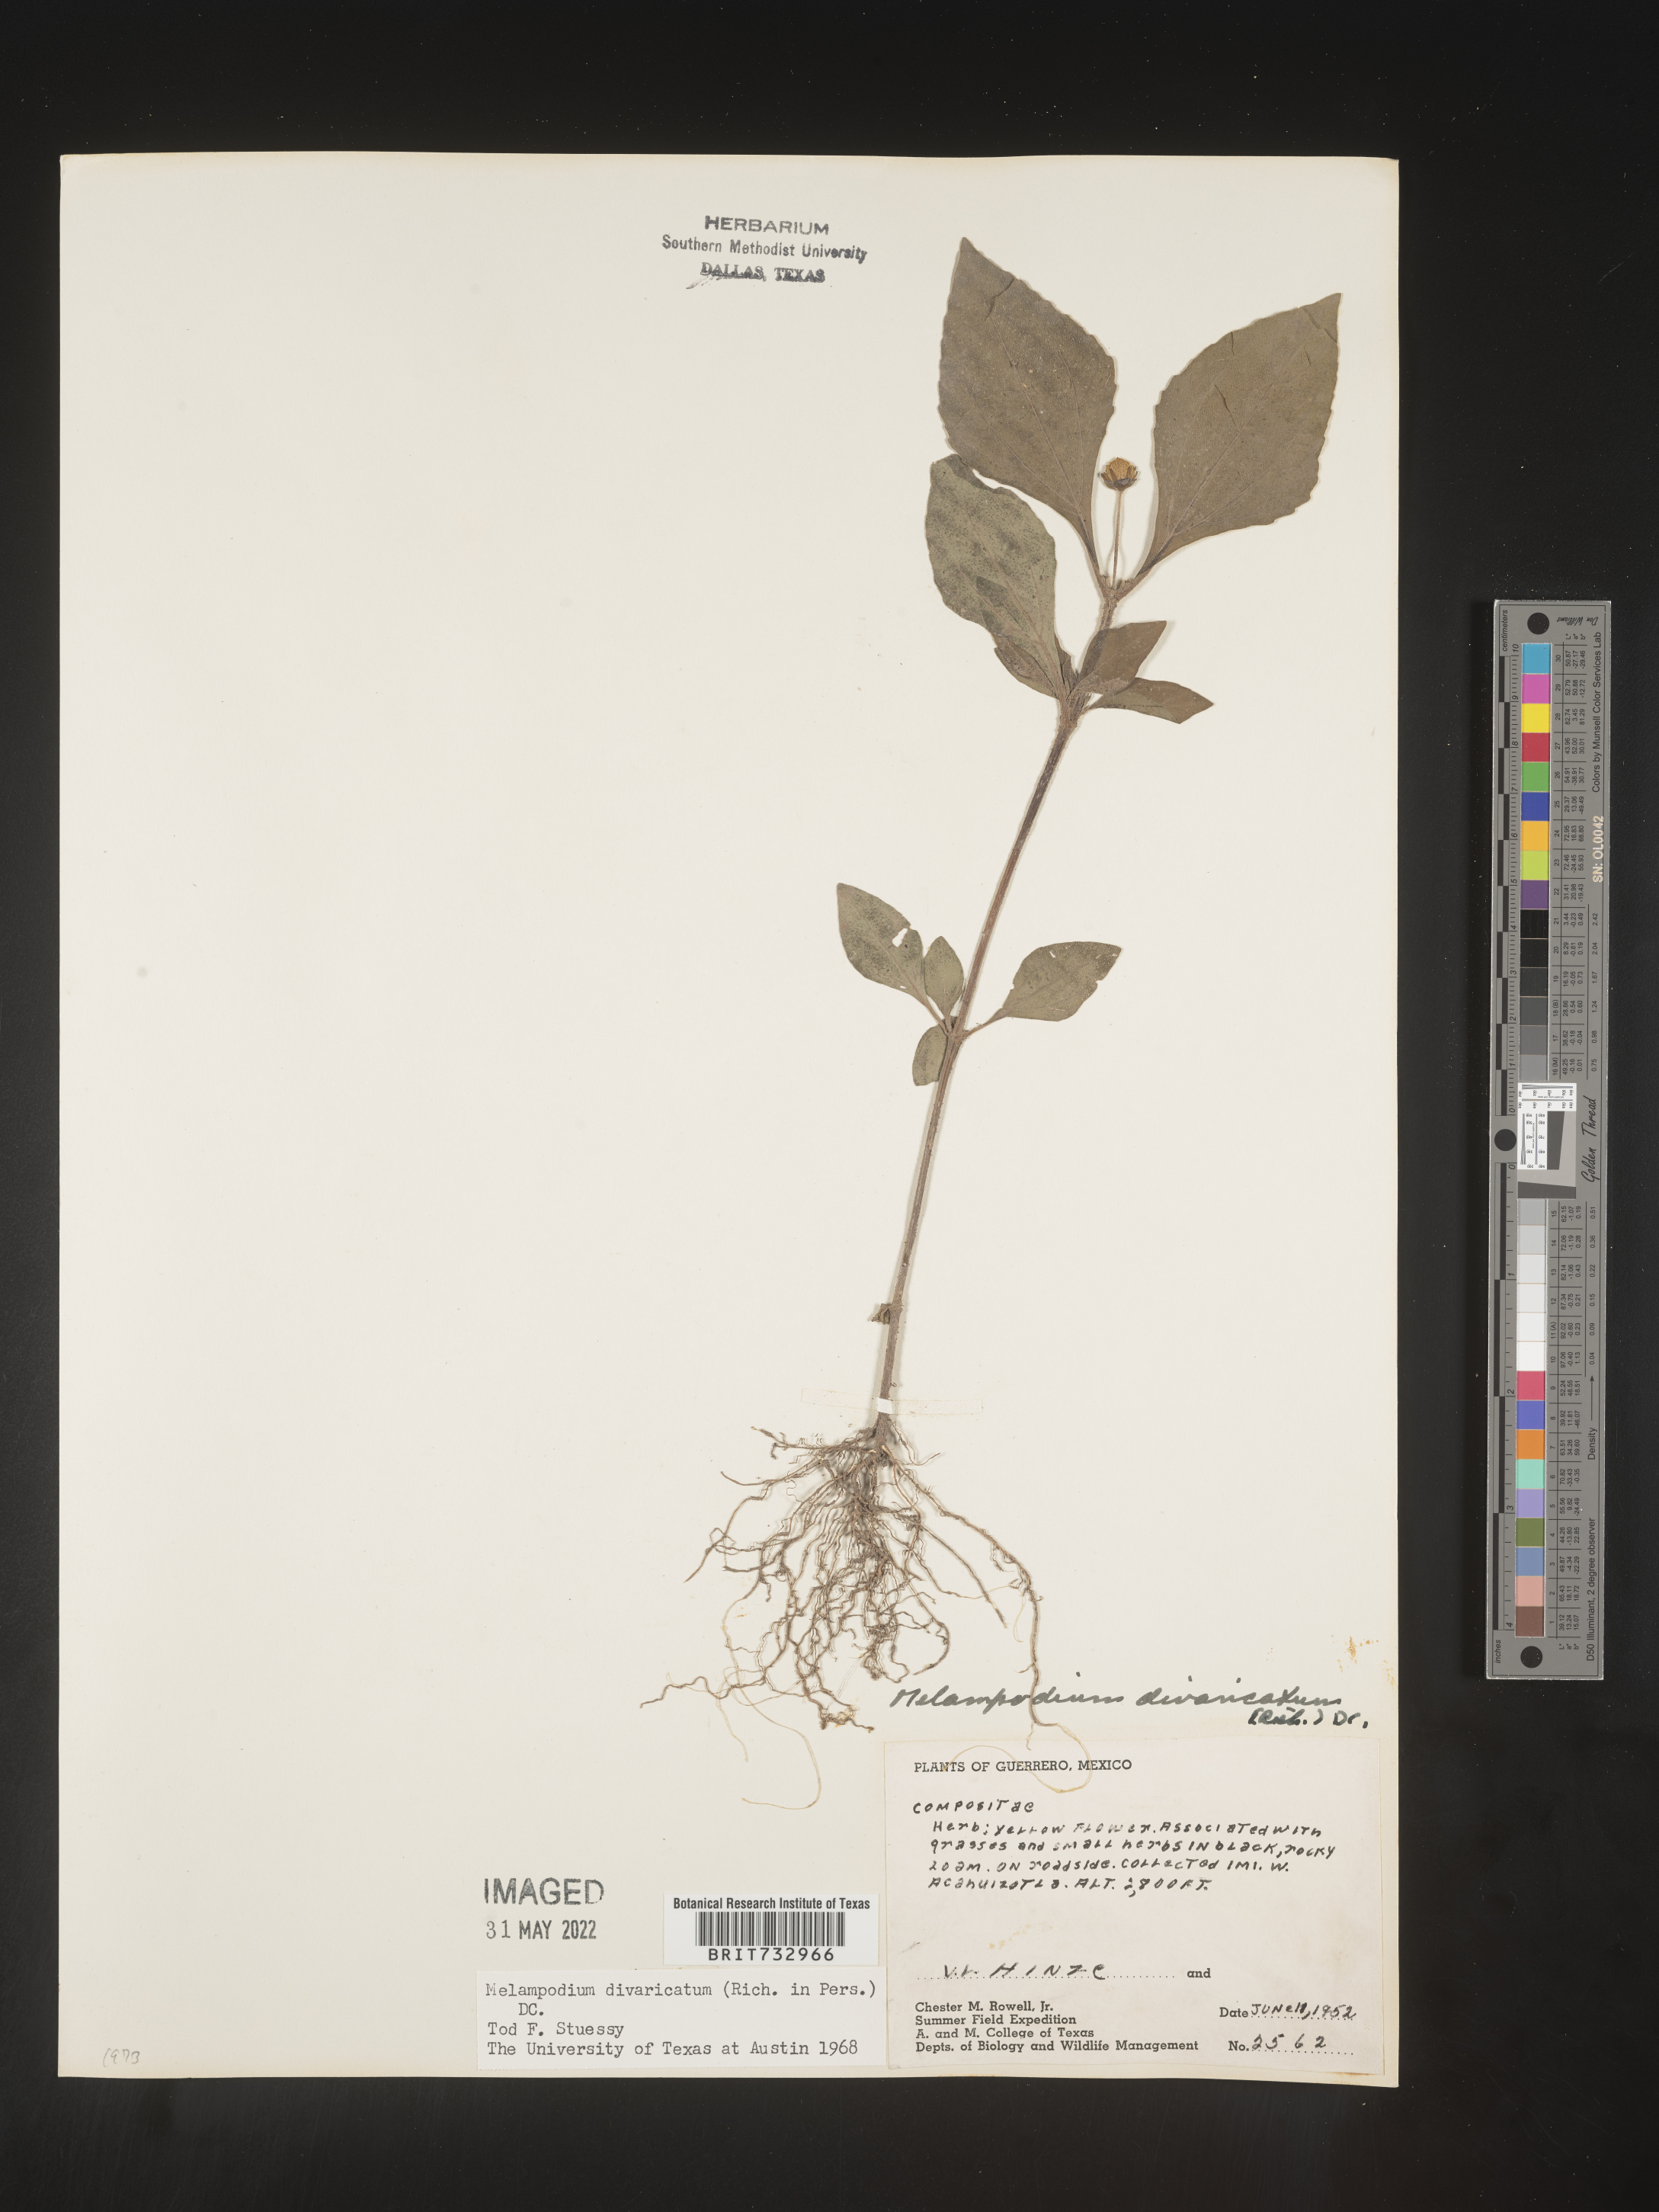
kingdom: Plantae
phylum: Tracheophyta
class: Magnoliopsida
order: Asterales
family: Asteraceae
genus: Melampodium
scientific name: Melampodium
